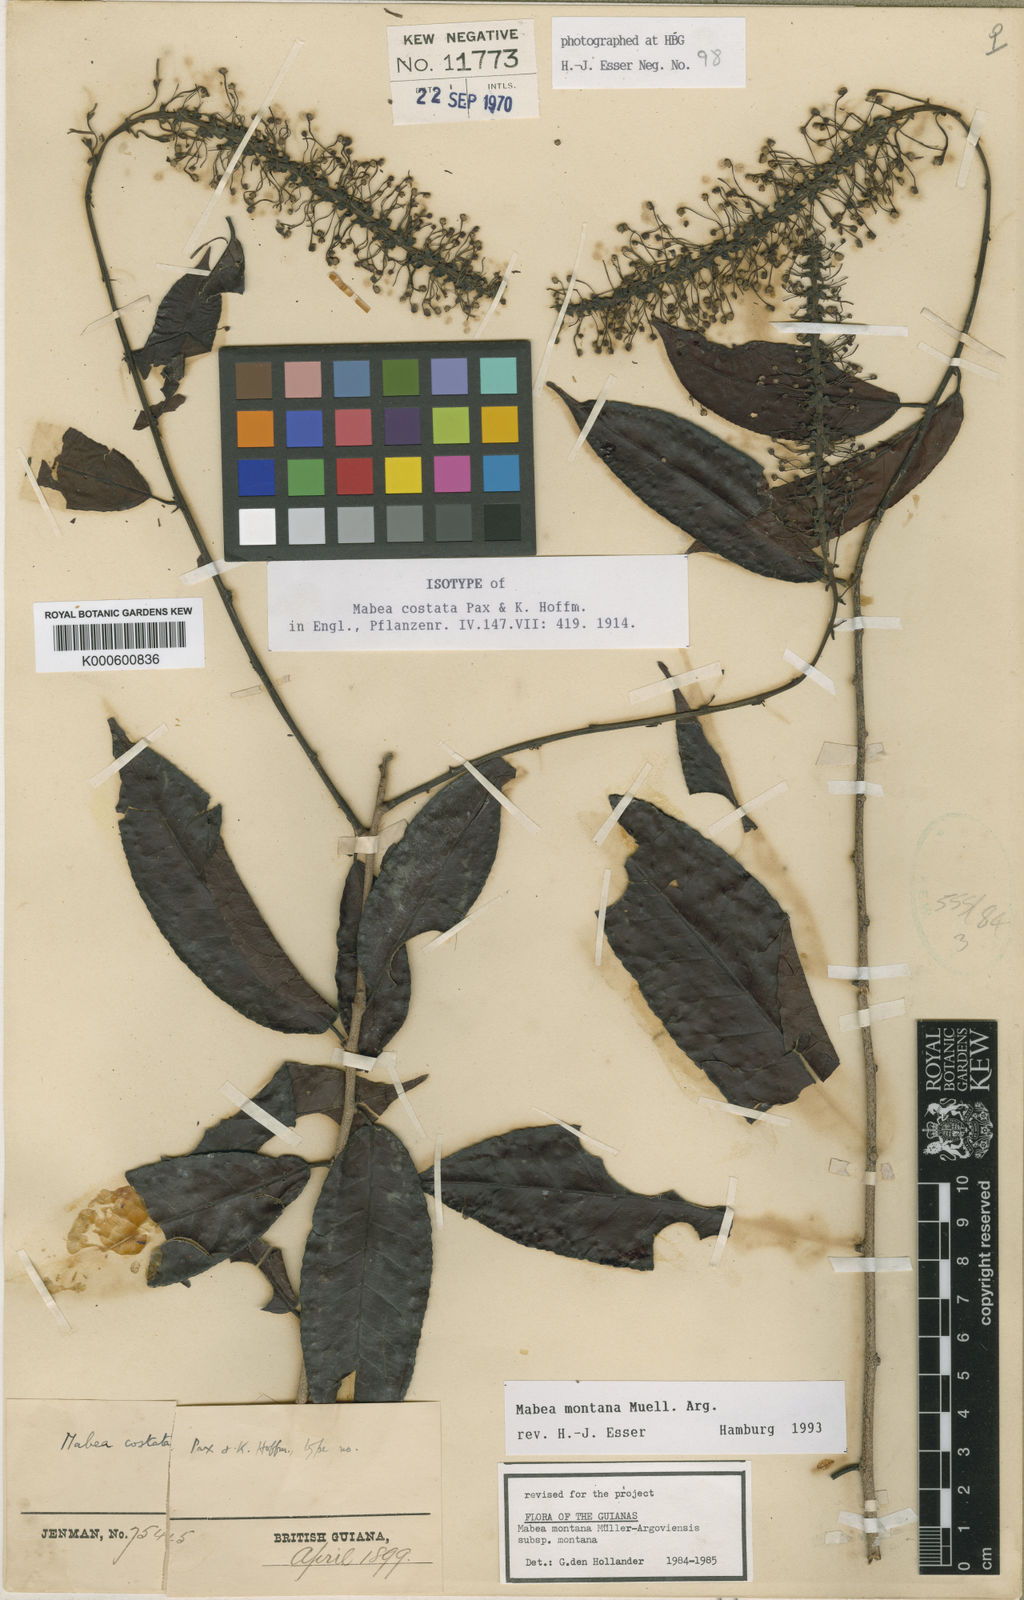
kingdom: Plantae
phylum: Tracheophyta
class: Magnoliopsida
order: Malpighiales
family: Euphorbiaceae
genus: Mabea
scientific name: Mabea montana
